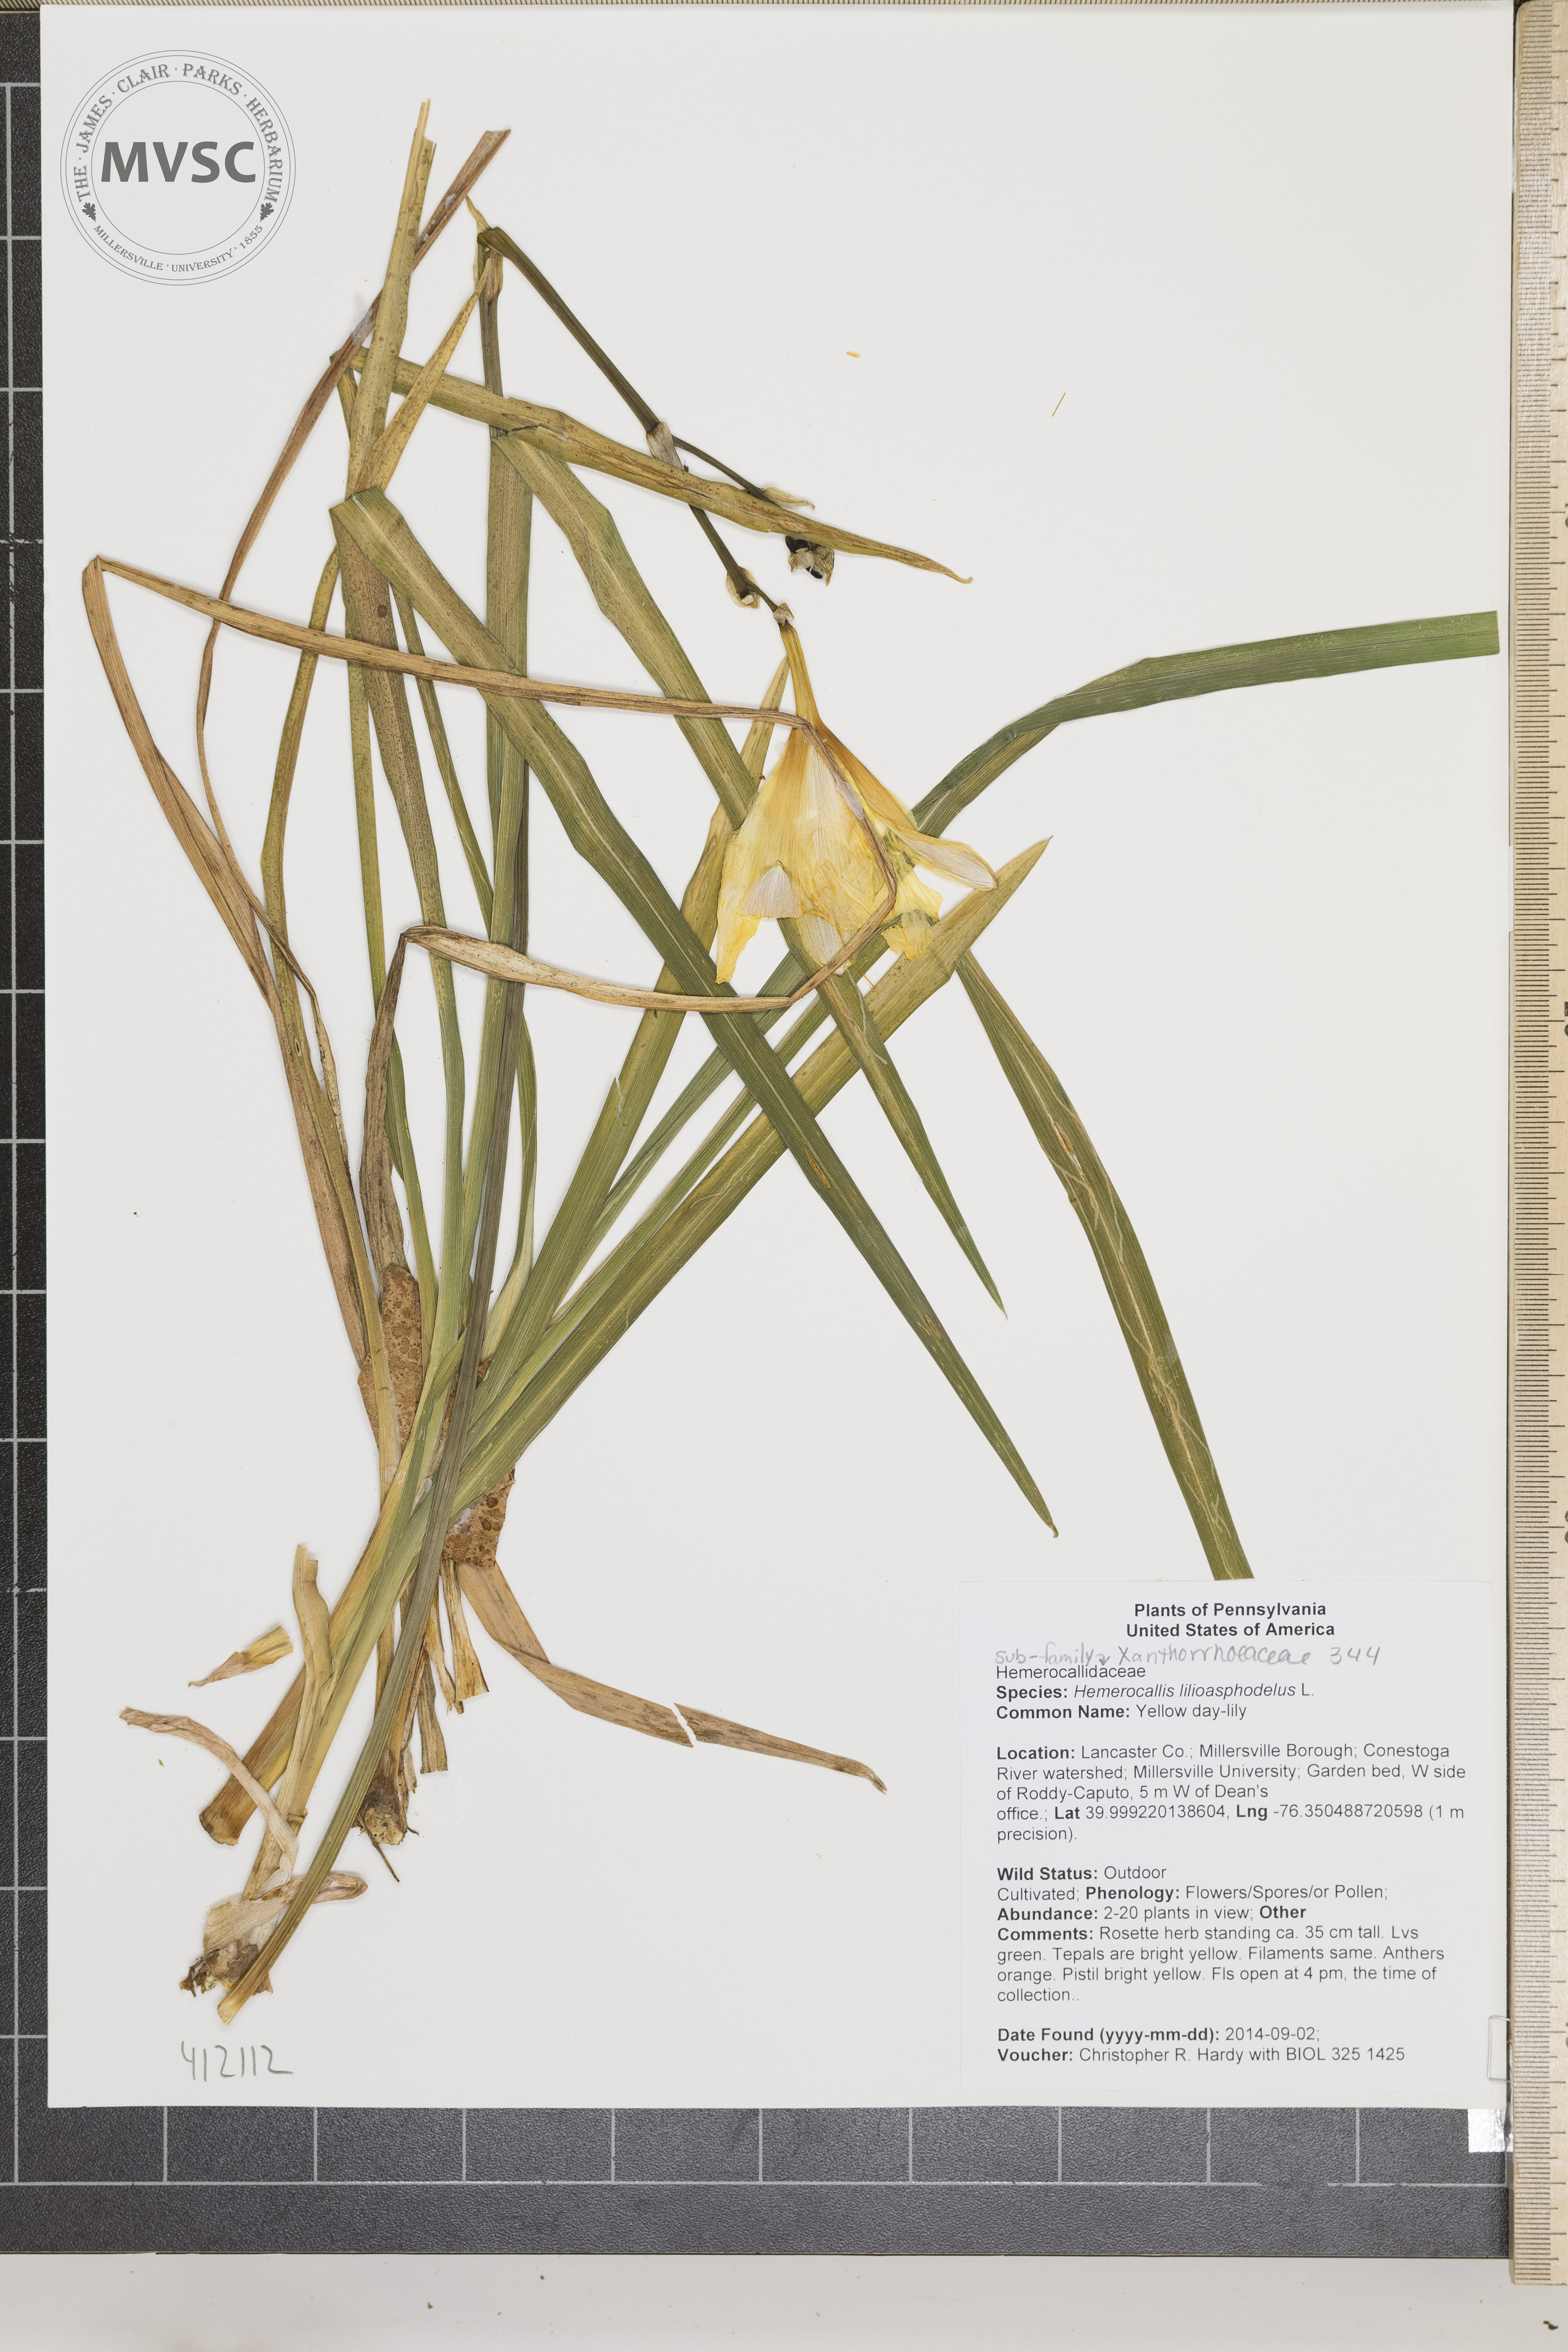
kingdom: Plantae
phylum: Tracheophyta
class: Liliopsida
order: Asparagales
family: Asphodelaceae
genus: Hemerocallis
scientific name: Hemerocallis lilioasphodelus
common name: Yellow day-lily
